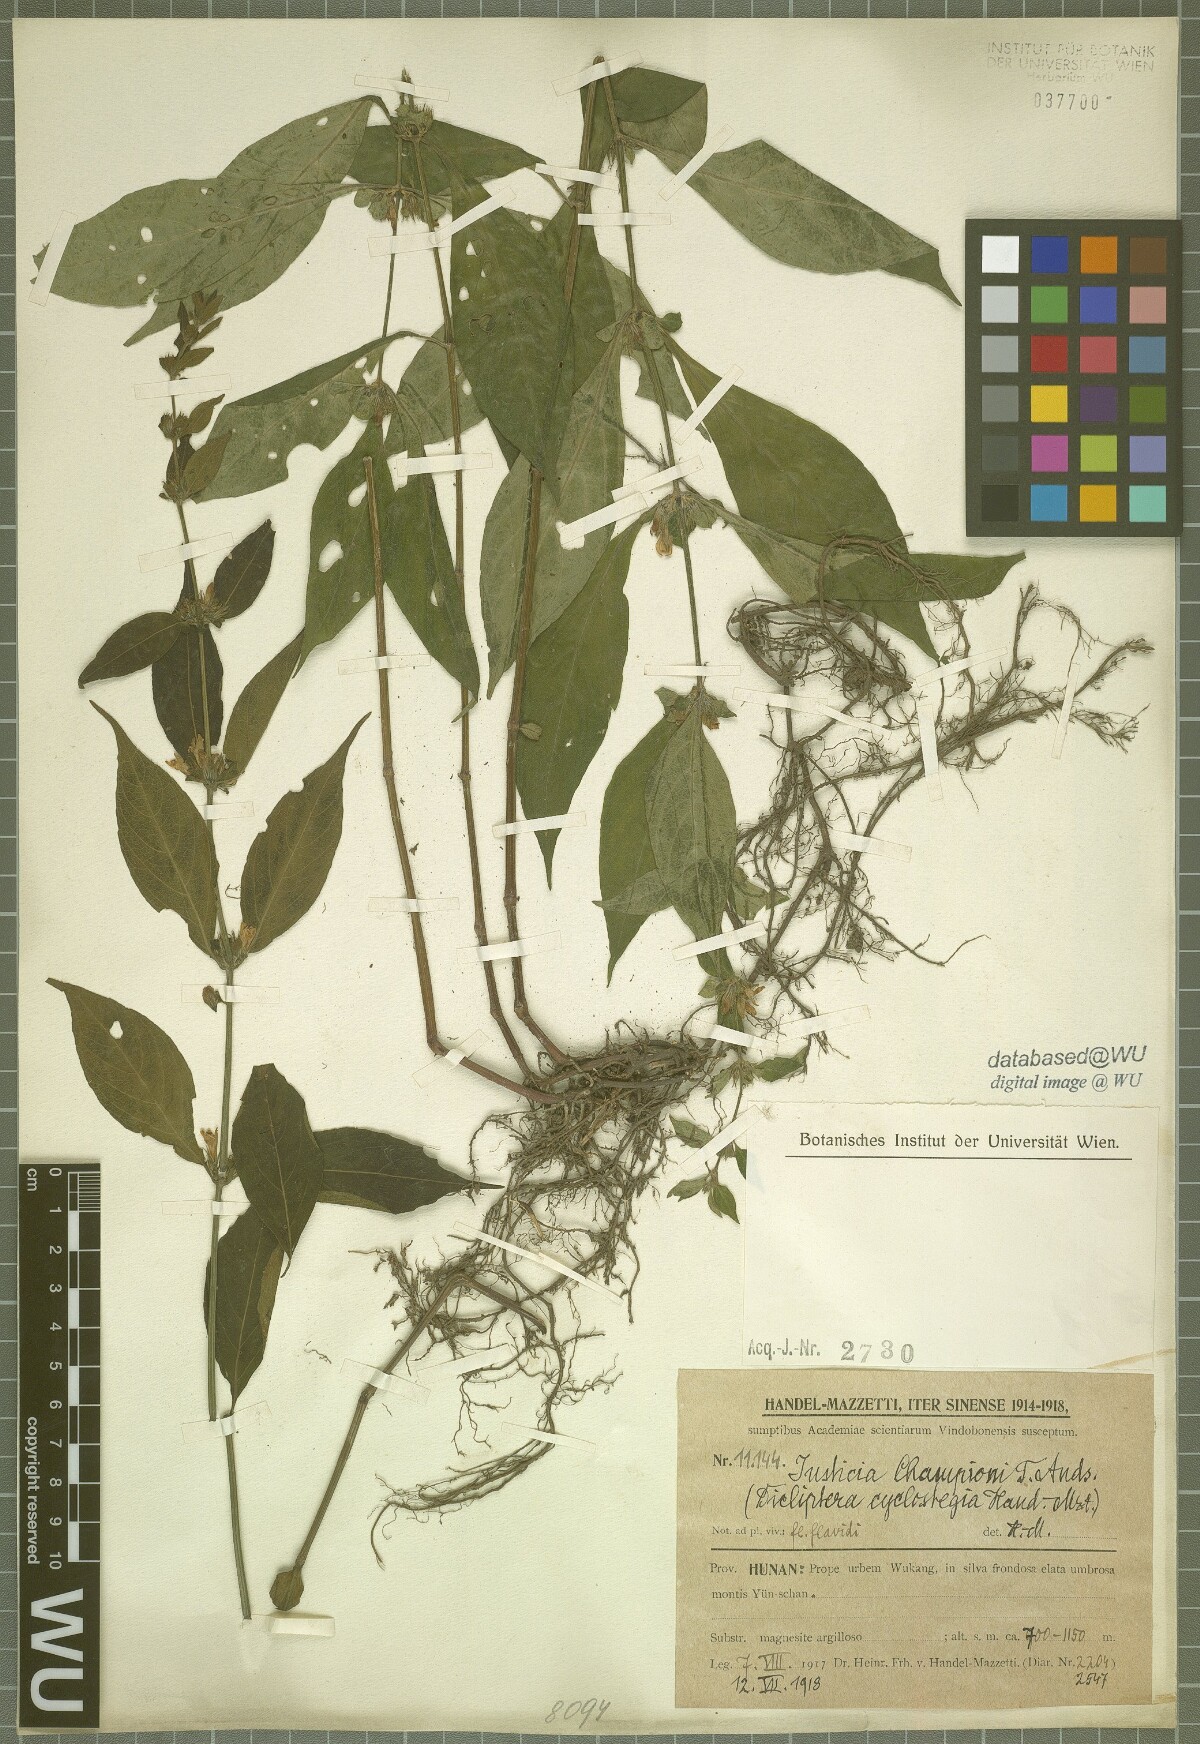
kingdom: Plantae
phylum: Tracheophyta
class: Magnoliopsida
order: Lamiales
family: Acanthaceae
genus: Justicia
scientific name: Justicia championii
